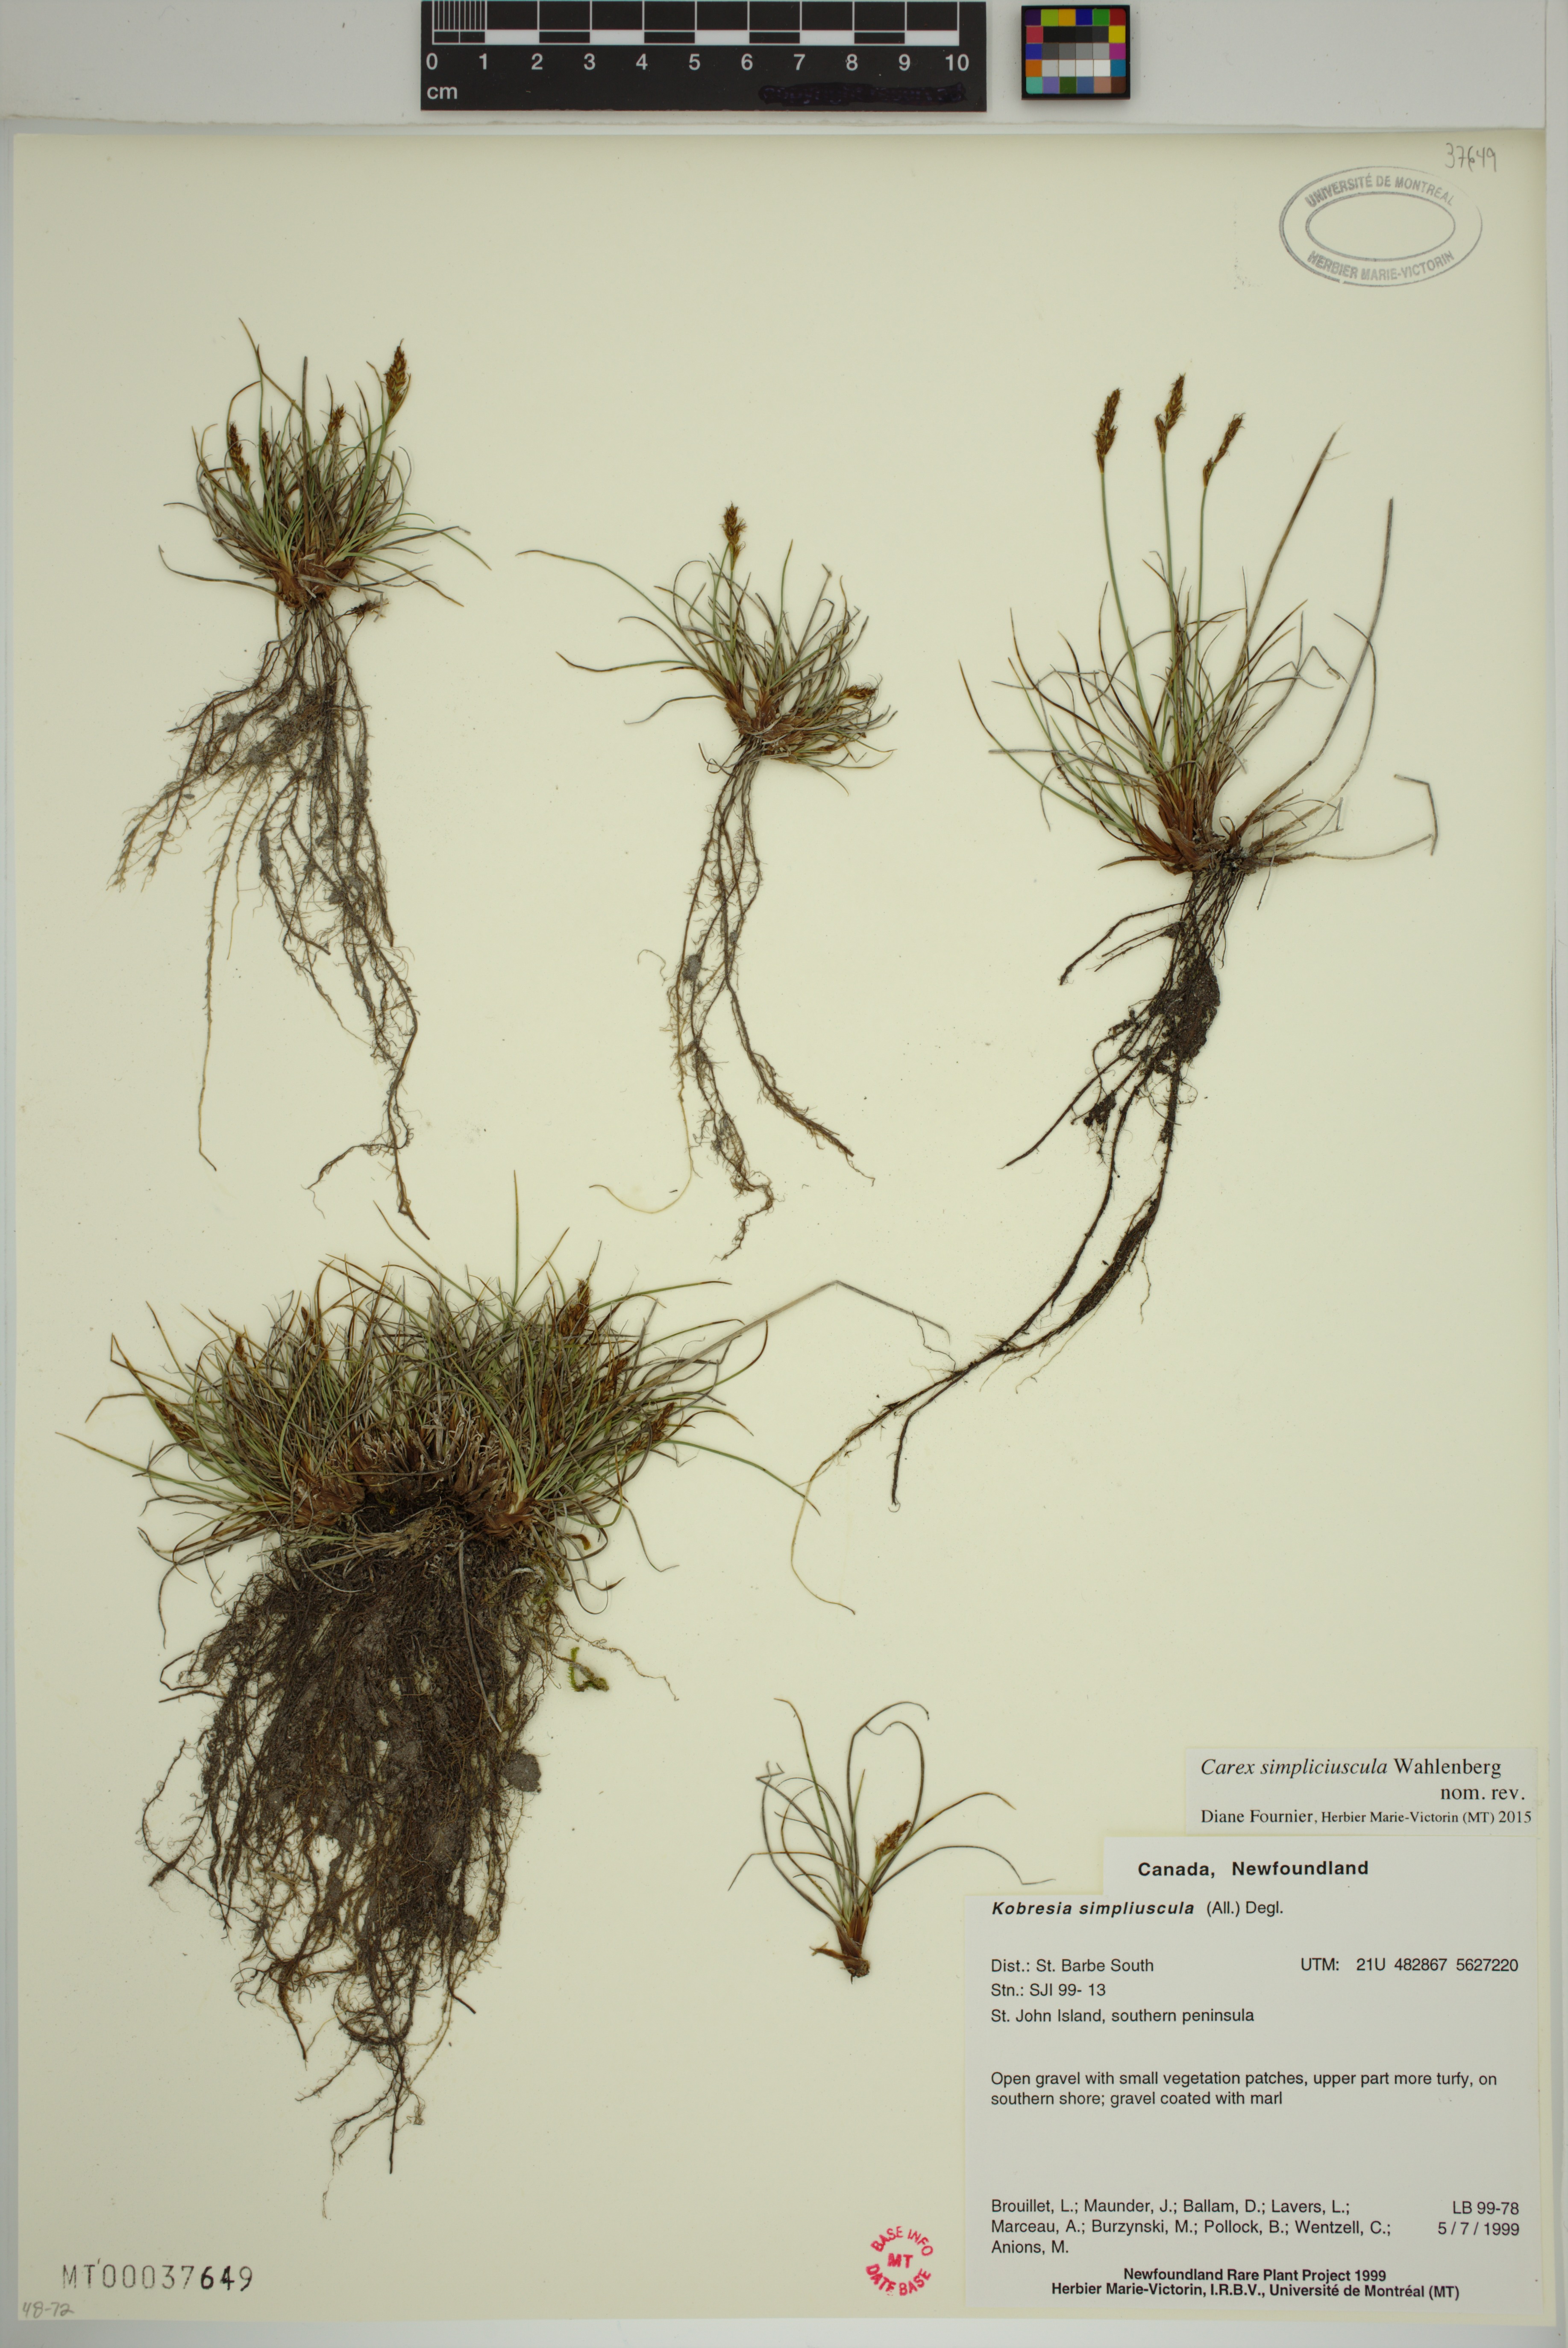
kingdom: Plantae
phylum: Tracheophyta
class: Liliopsida
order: Poales
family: Cyperaceae
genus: Carex
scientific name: Carex simpliciuscula
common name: Simple bog sedge
